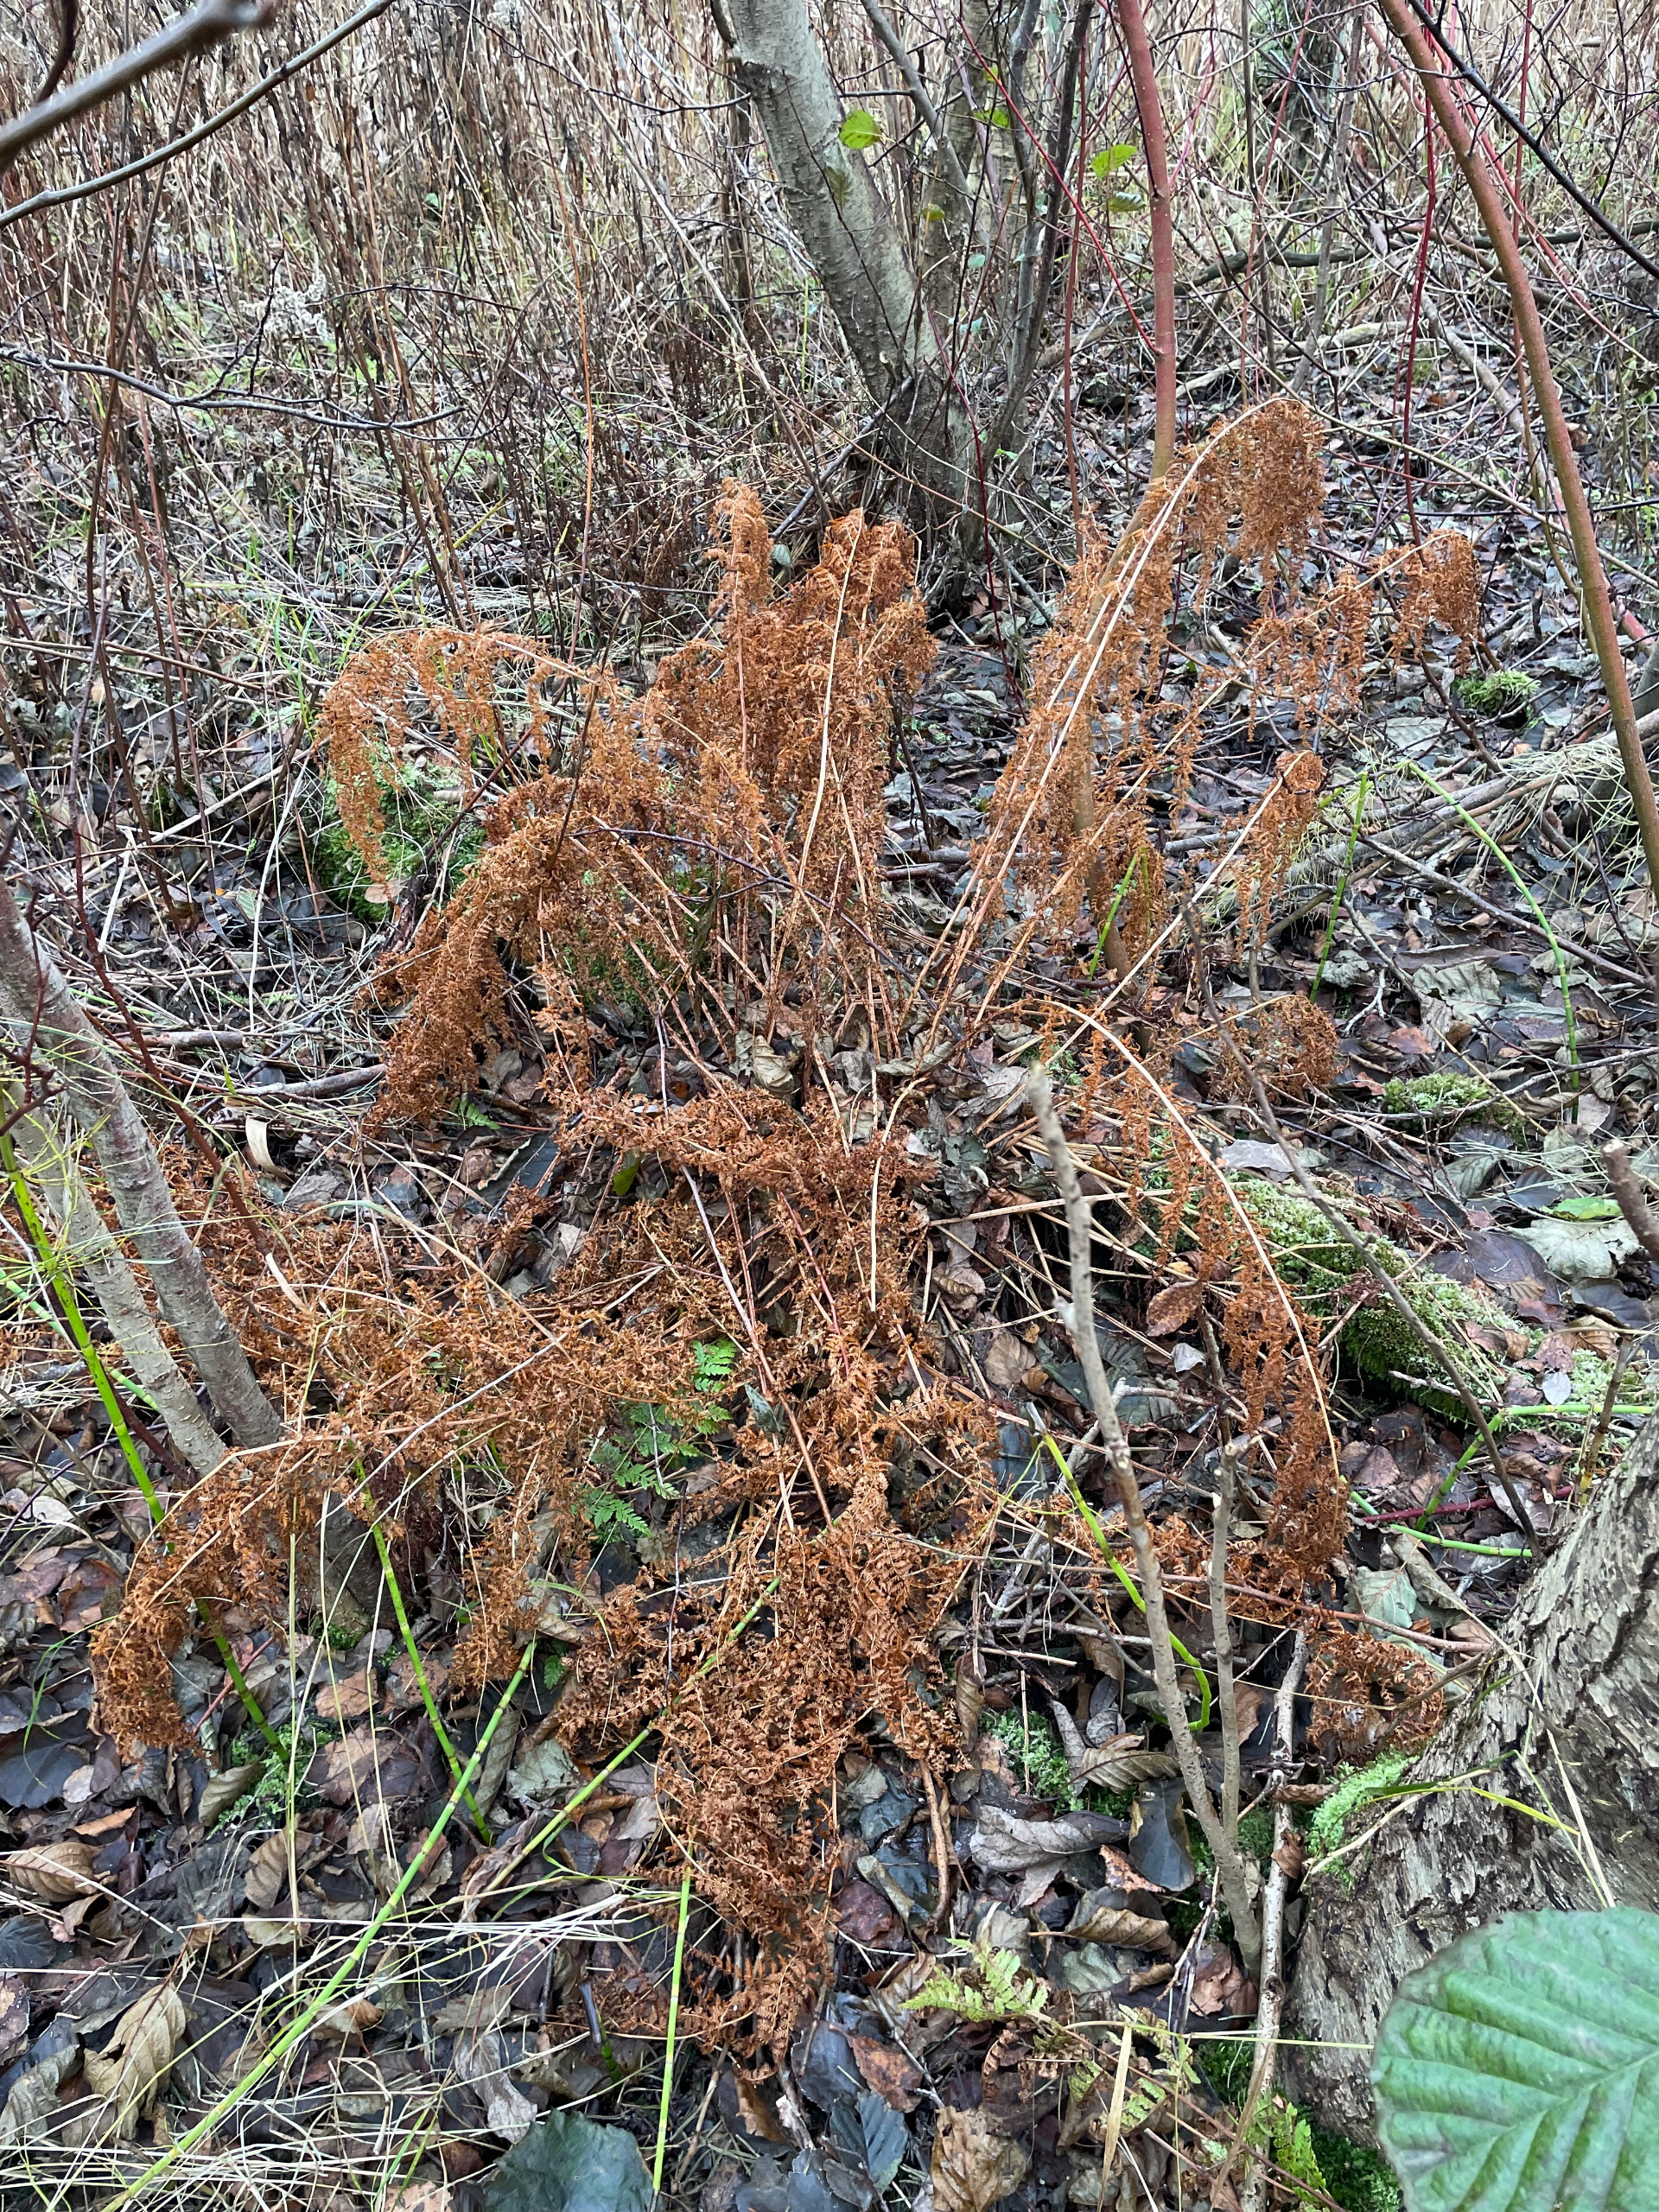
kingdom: Plantae
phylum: Tracheophyta
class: Polypodiopsida
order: Polypodiales
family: Athyriaceae
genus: Athyrium
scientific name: Athyrium filix-femina
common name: Fjerbregne
